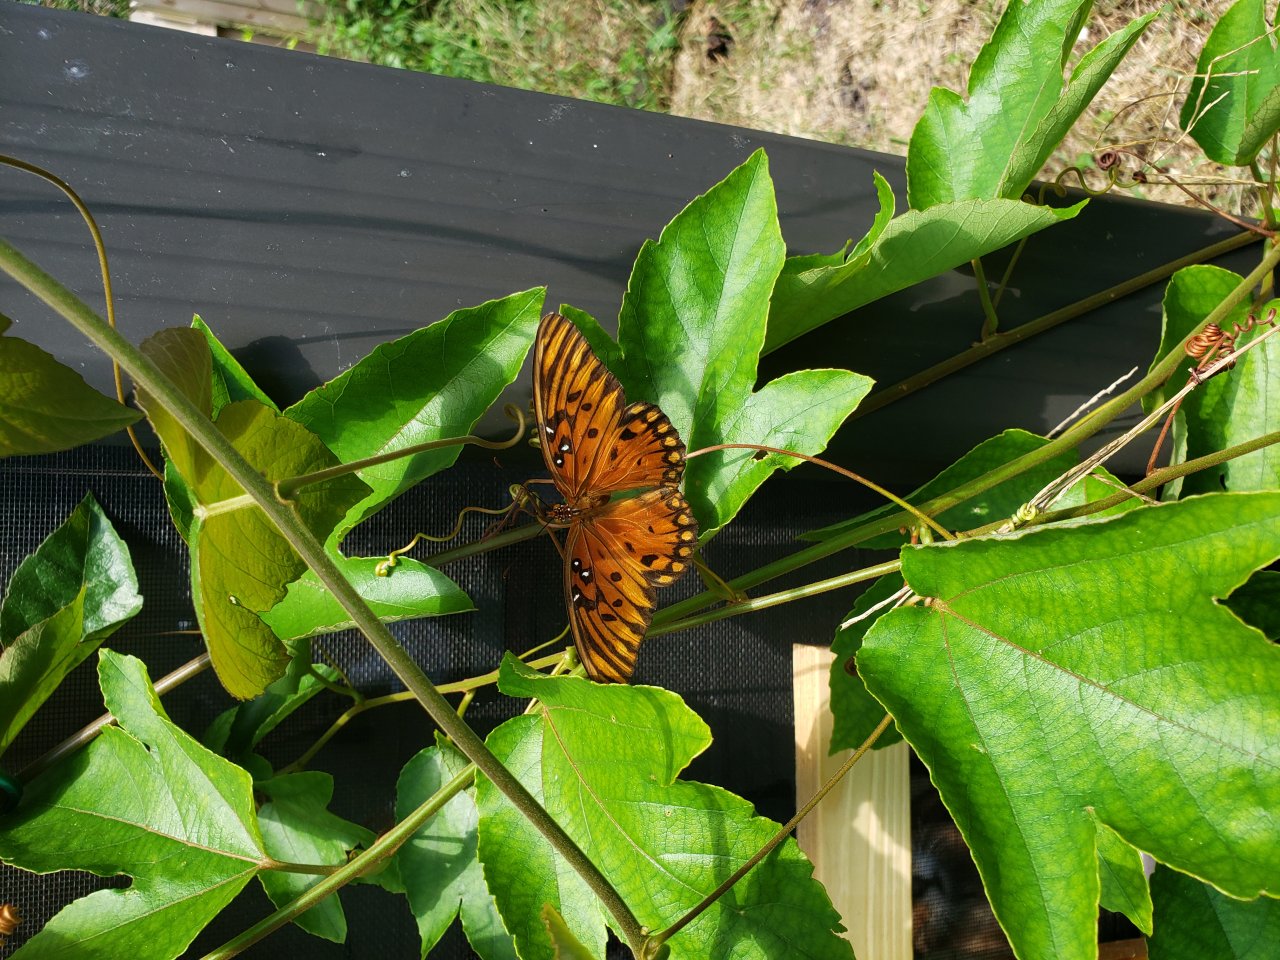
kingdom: Animalia
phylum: Arthropoda
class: Insecta
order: Lepidoptera
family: Nymphalidae
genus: Dione
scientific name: Dione vanillae
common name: Gulf Fritillary
